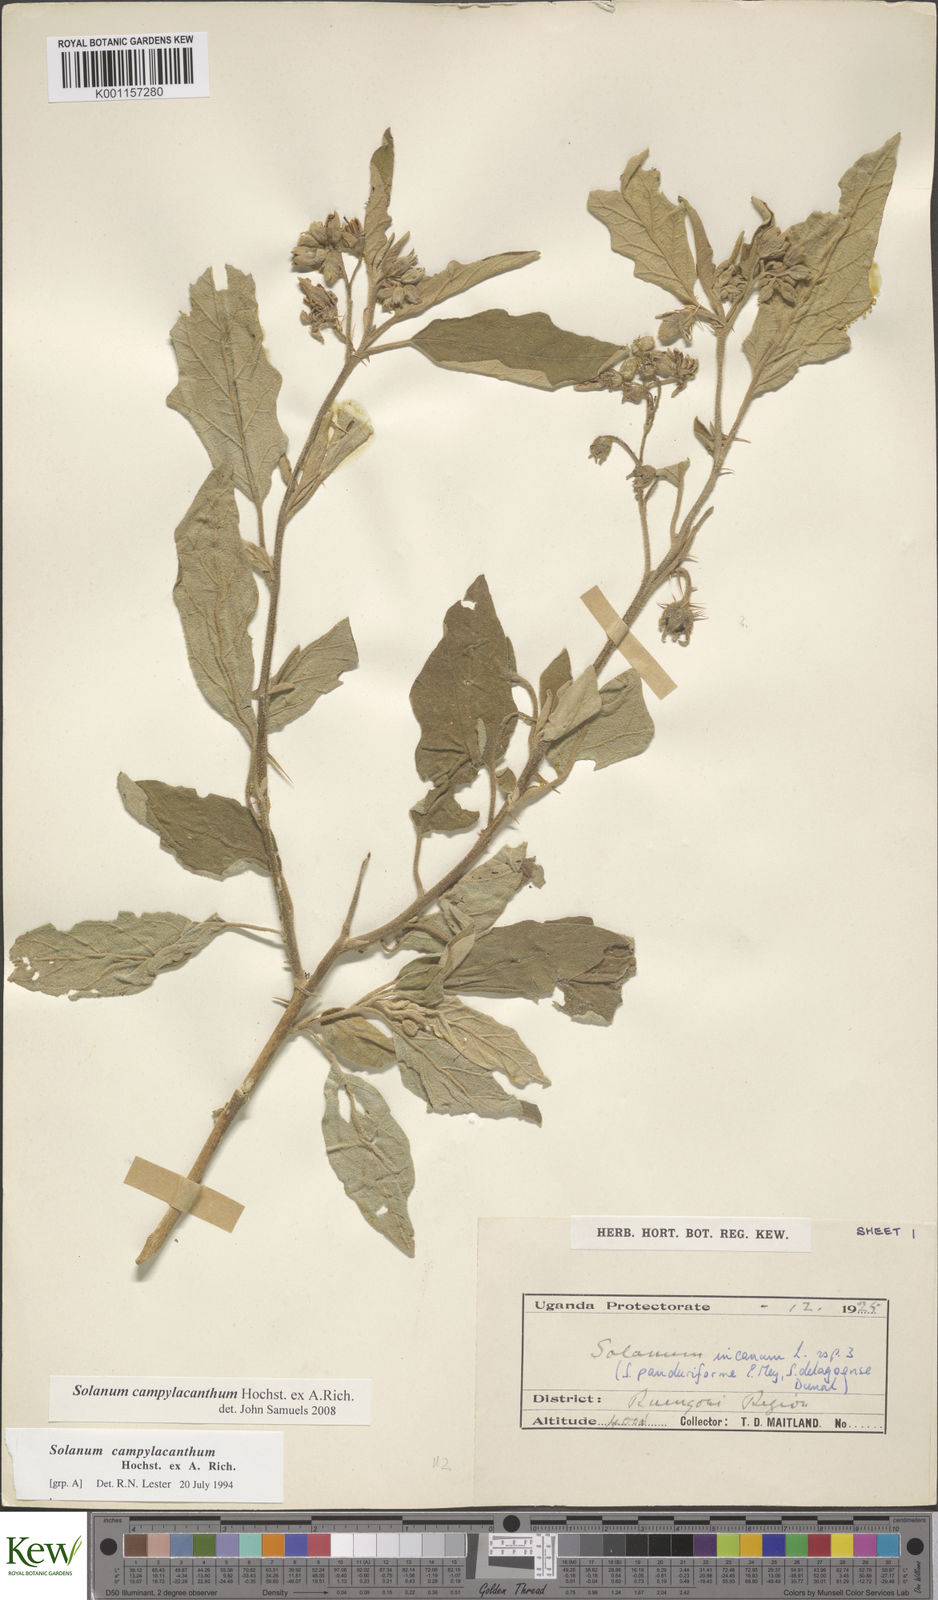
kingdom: Plantae
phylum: Tracheophyta
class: Magnoliopsida
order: Solanales
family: Solanaceae
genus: Solanum
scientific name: Solanum campylacanthum
